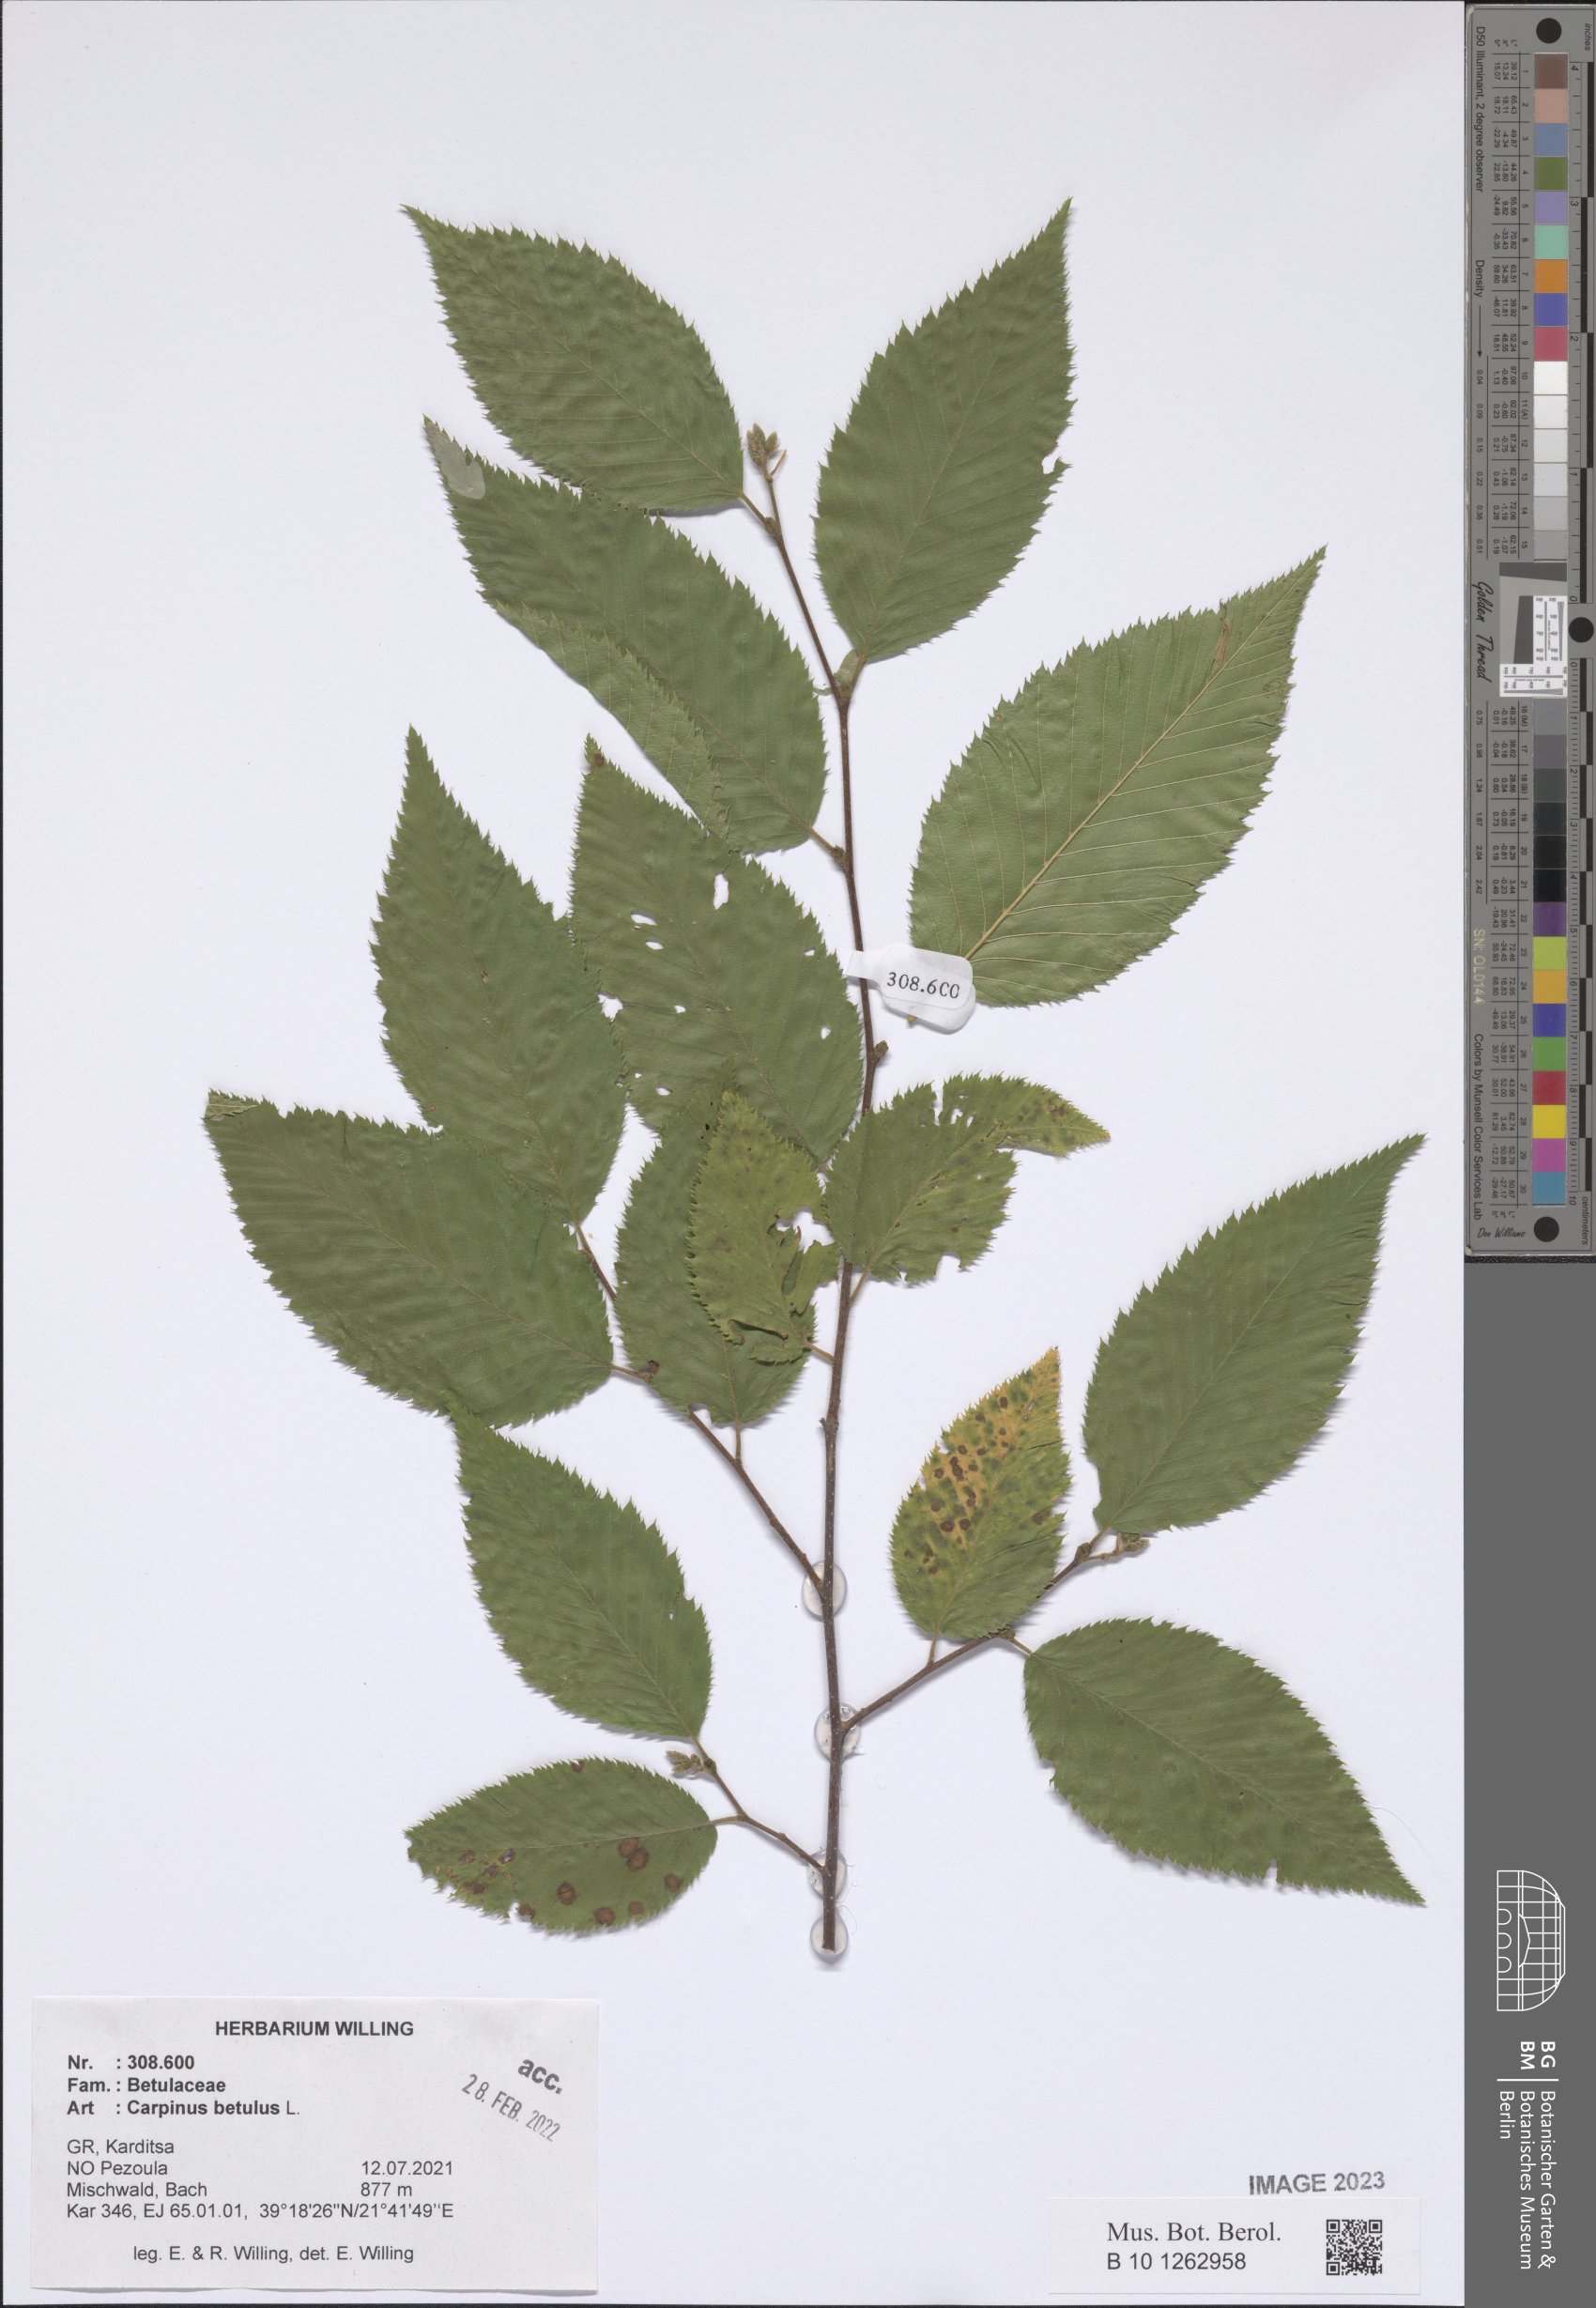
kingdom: Plantae
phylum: Tracheophyta
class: Magnoliopsida
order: Fagales
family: Betulaceae
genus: Carpinus
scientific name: Carpinus betulus
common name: Hornbeam
